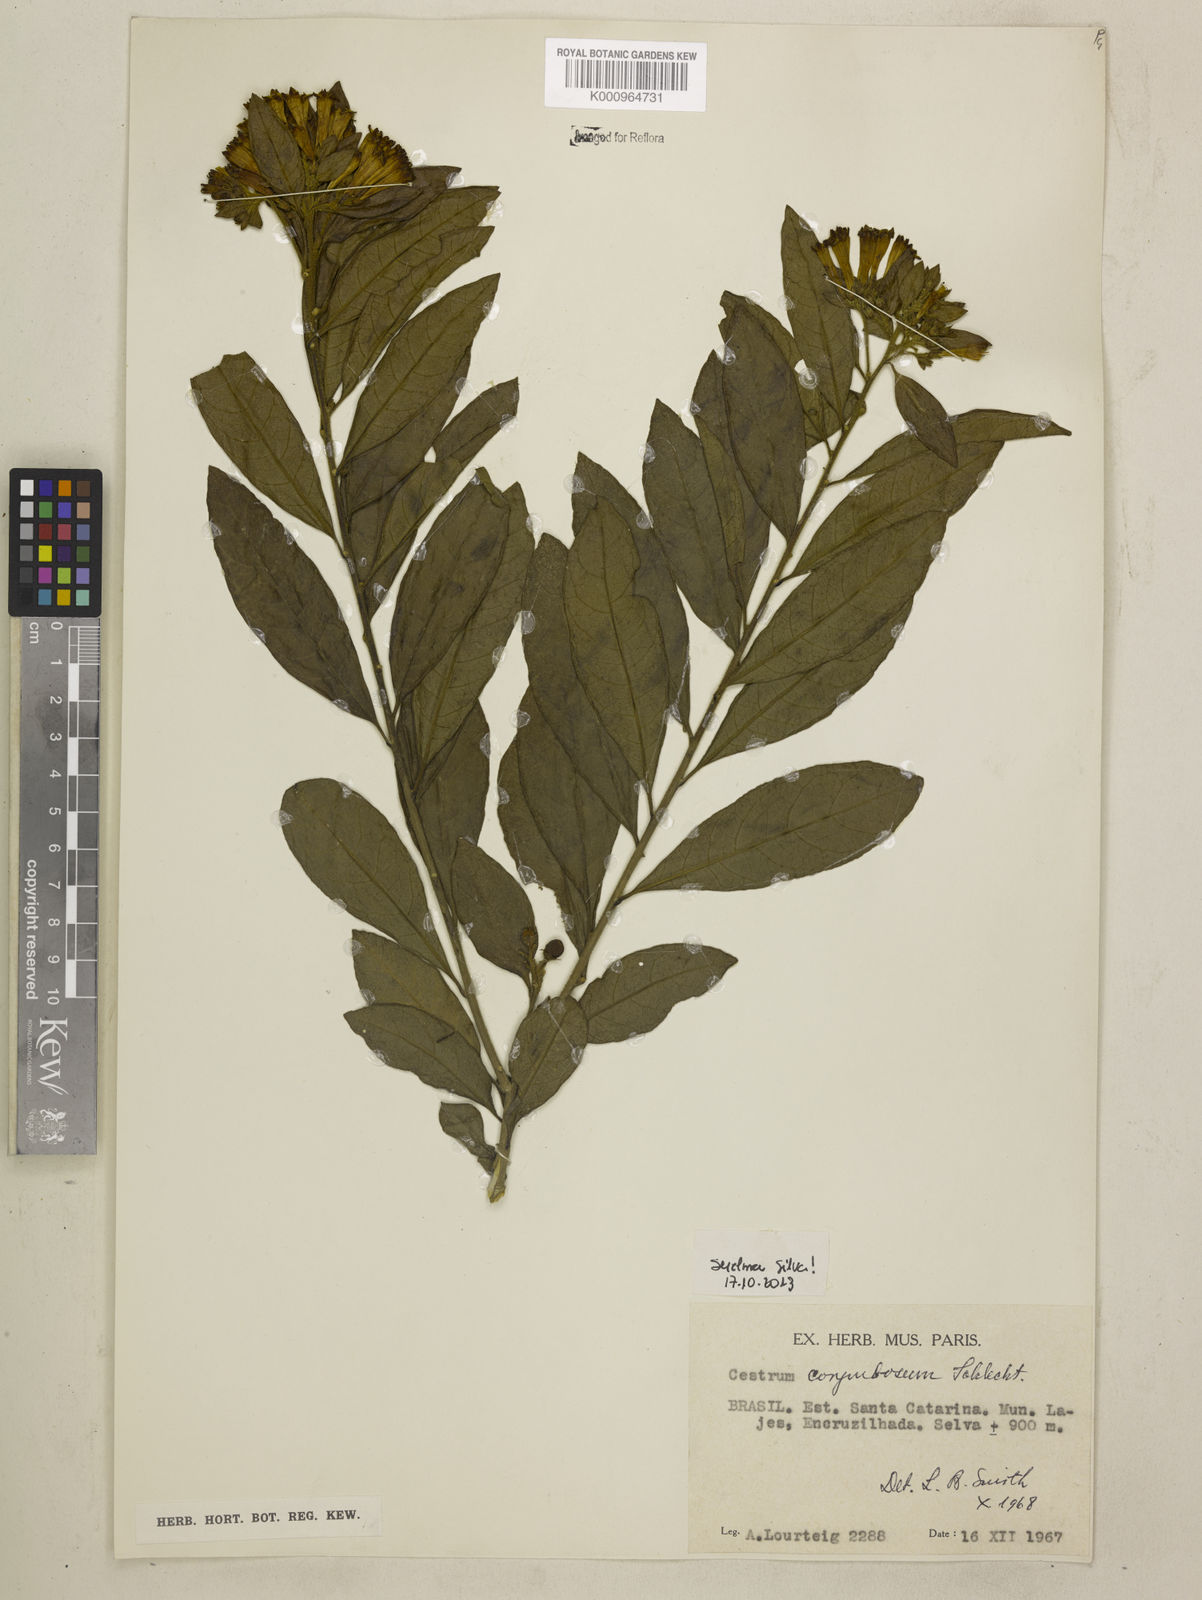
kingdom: Plantae
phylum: Tracheophyta
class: Magnoliopsida
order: Solanales
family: Solanaceae
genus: Cestrum
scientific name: Cestrum corymbosum
